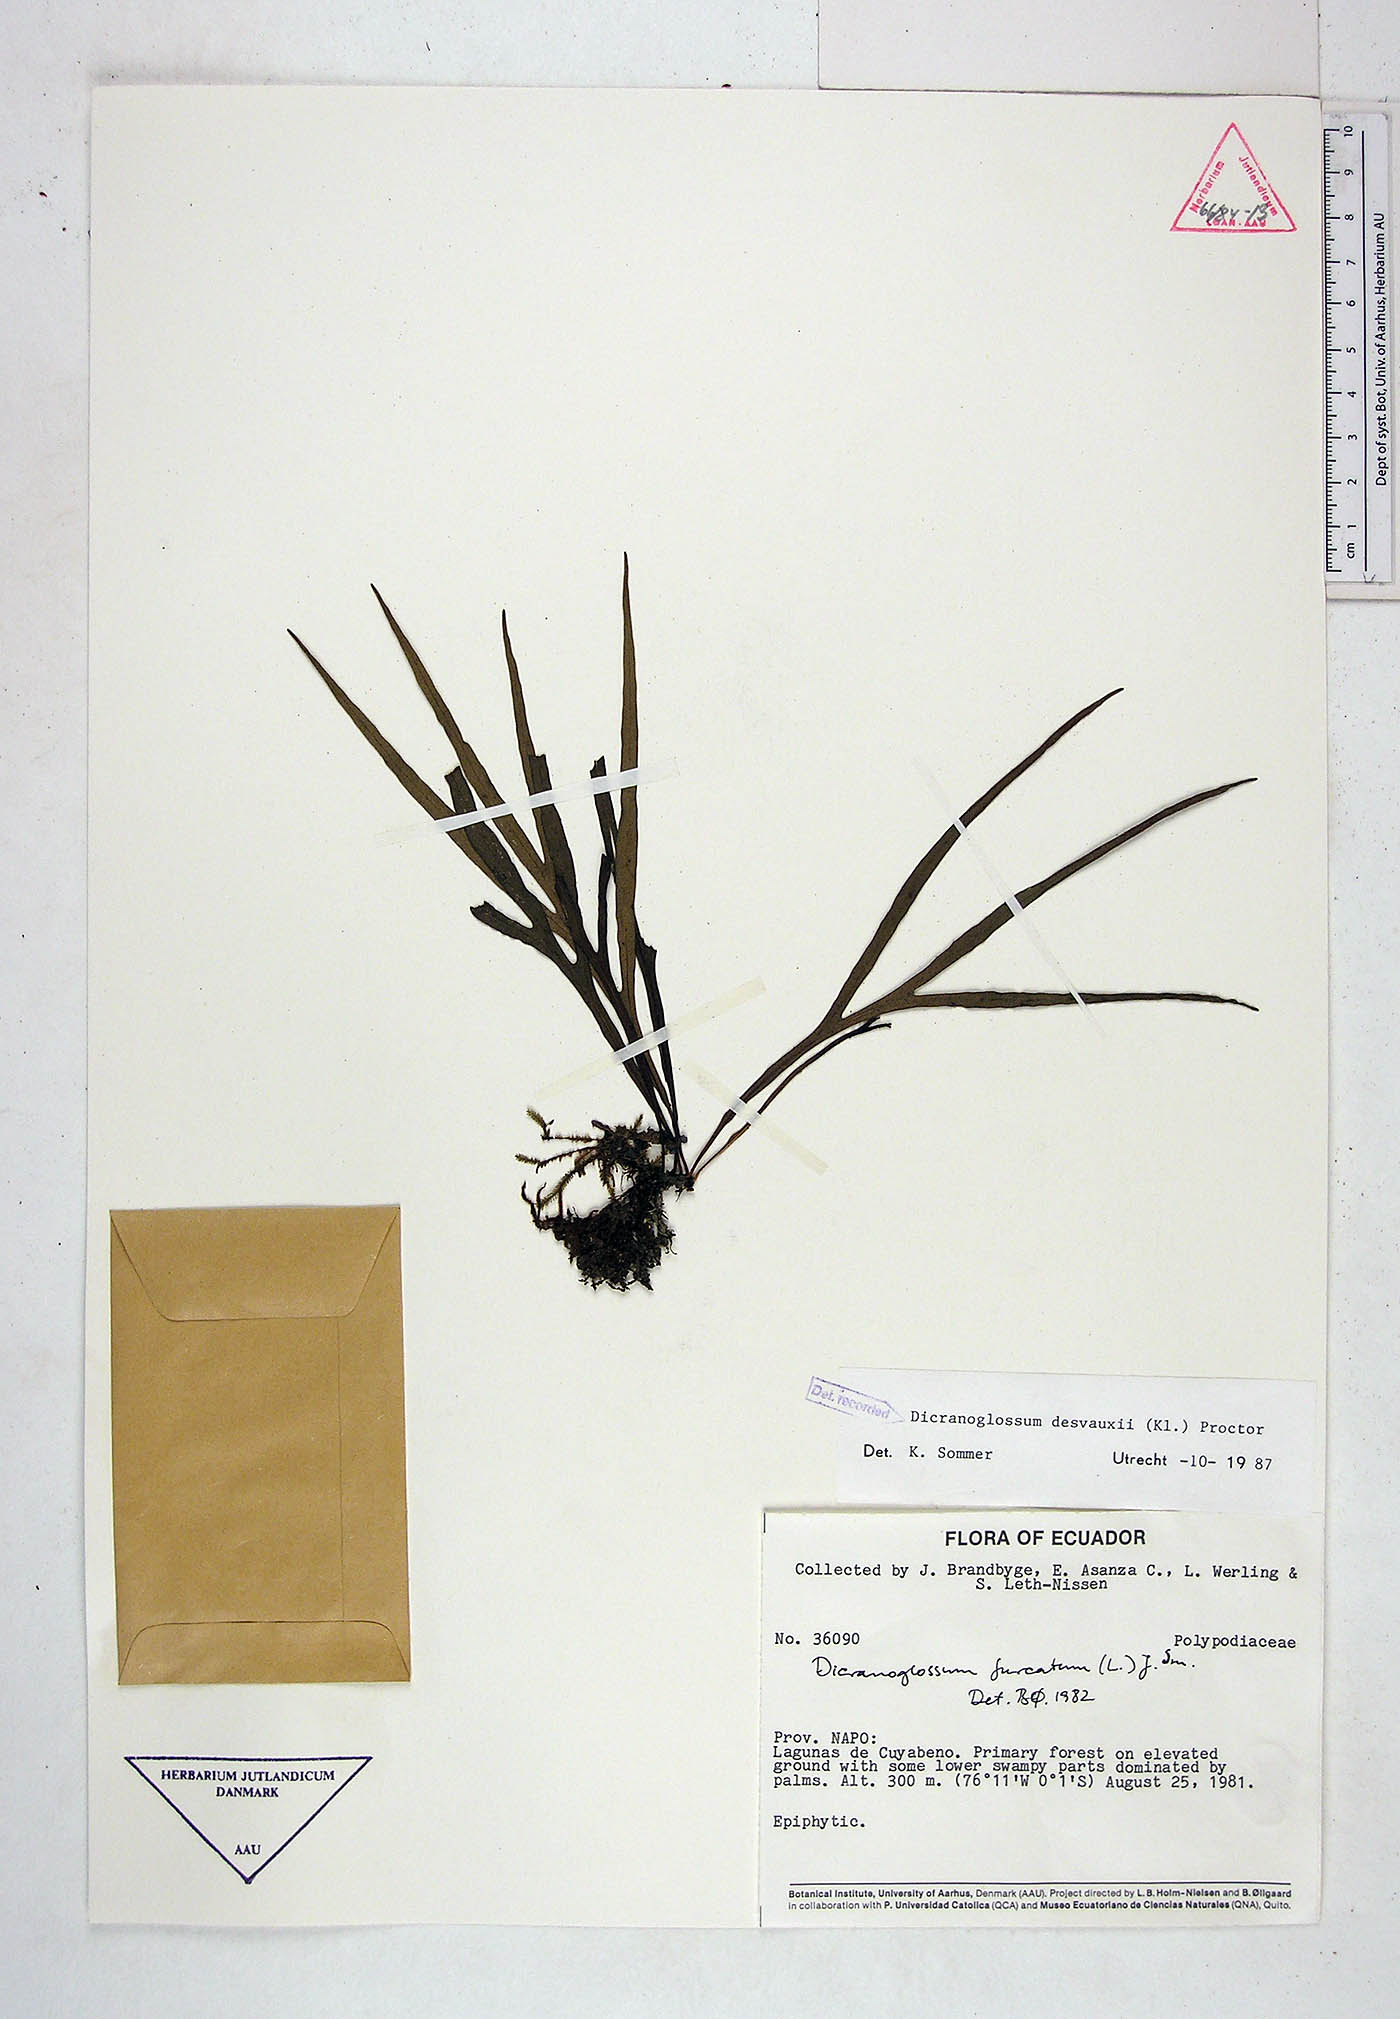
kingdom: Plantae
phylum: Tracheophyta
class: Polypodiopsida
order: Polypodiales
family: Polypodiaceae
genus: Pleopeltis
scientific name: Pleopeltis desvauxii
